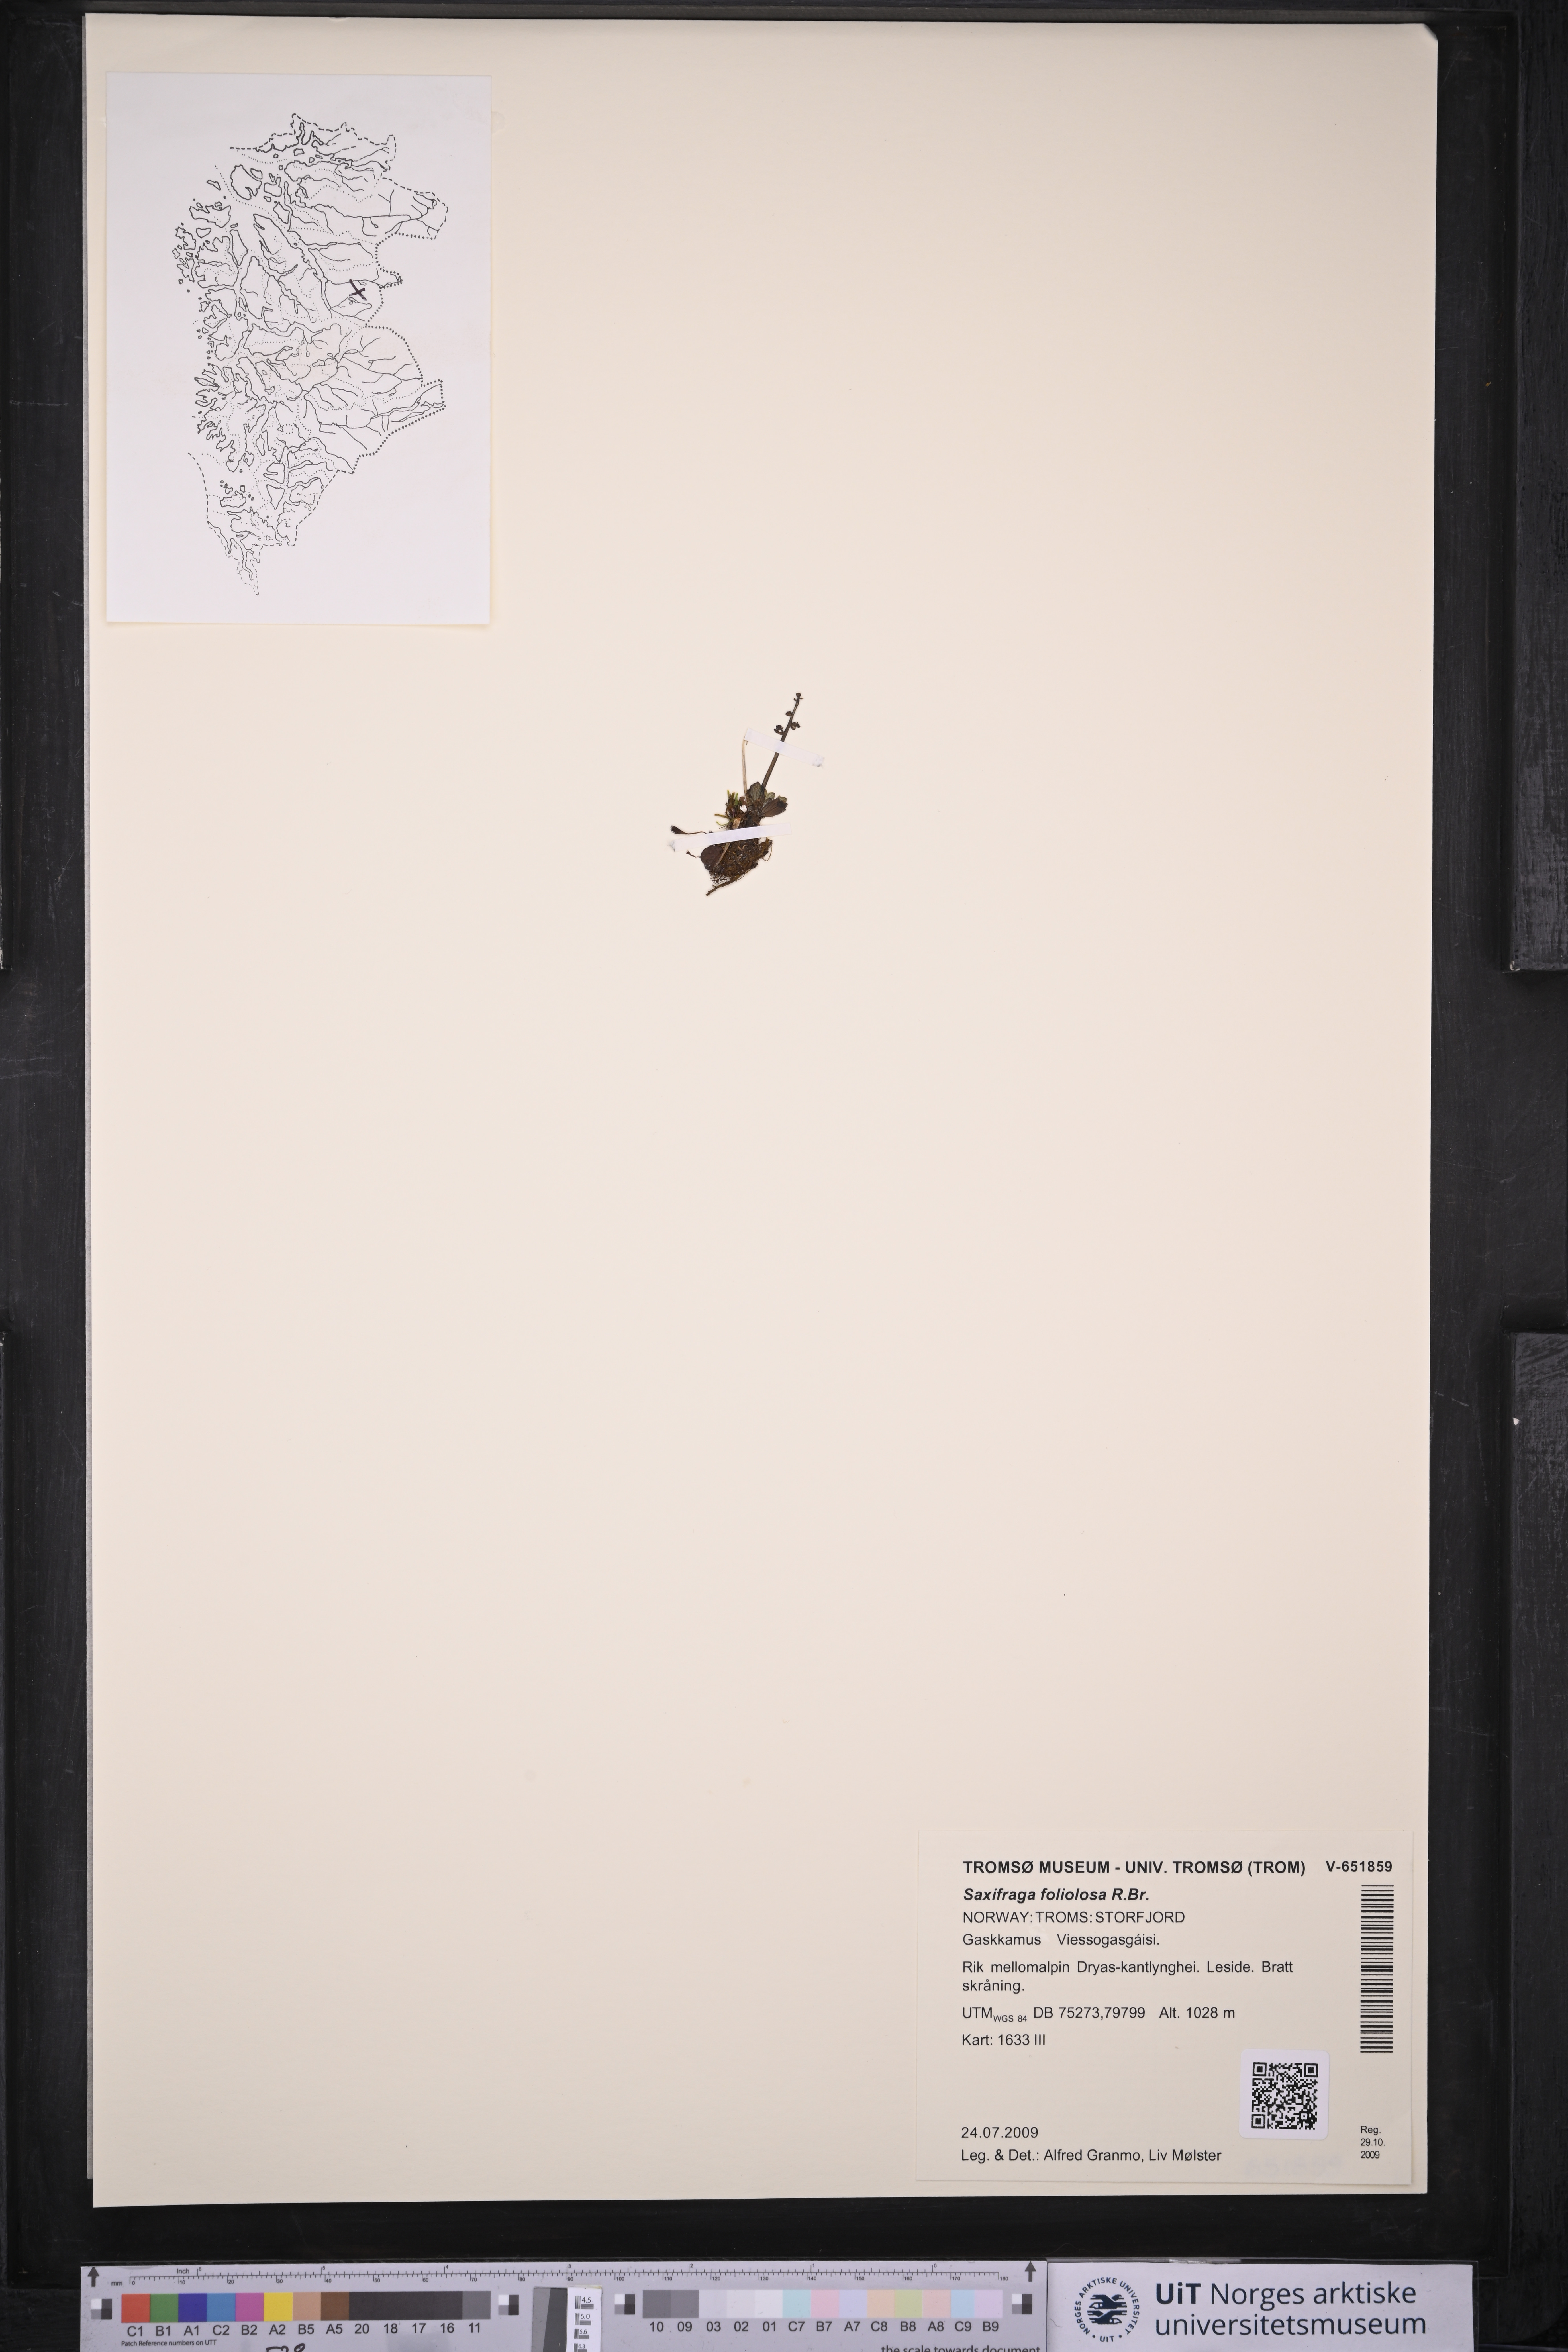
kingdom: Plantae
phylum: Tracheophyta
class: Magnoliopsida
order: Saxifragales
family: Saxifragaceae
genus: Micranthes
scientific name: Micranthes foliolosa
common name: Leafystem saxifrage
